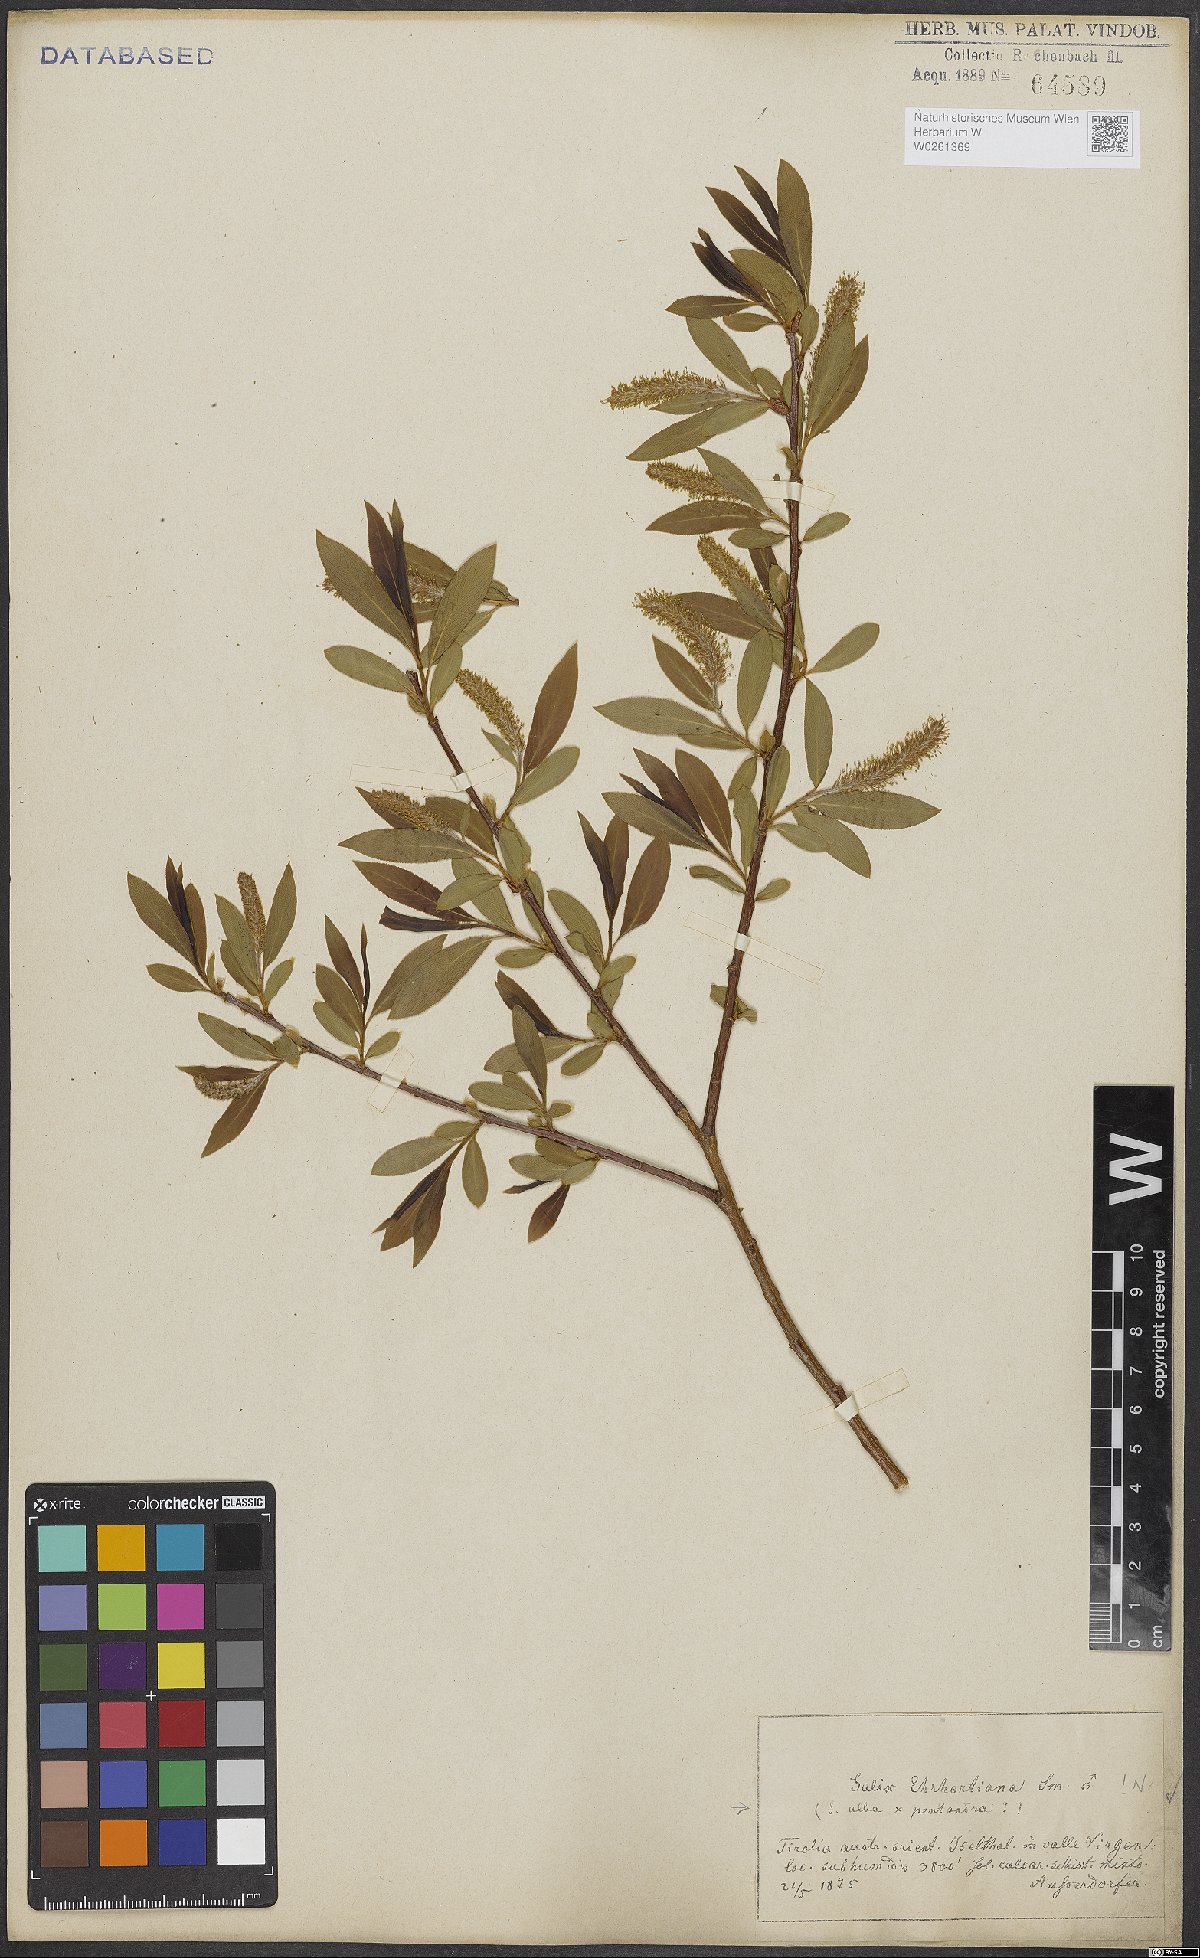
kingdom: Plantae
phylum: Tracheophyta
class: Magnoliopsida
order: Malpighiales
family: Salicaceae
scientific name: Salicaceae
